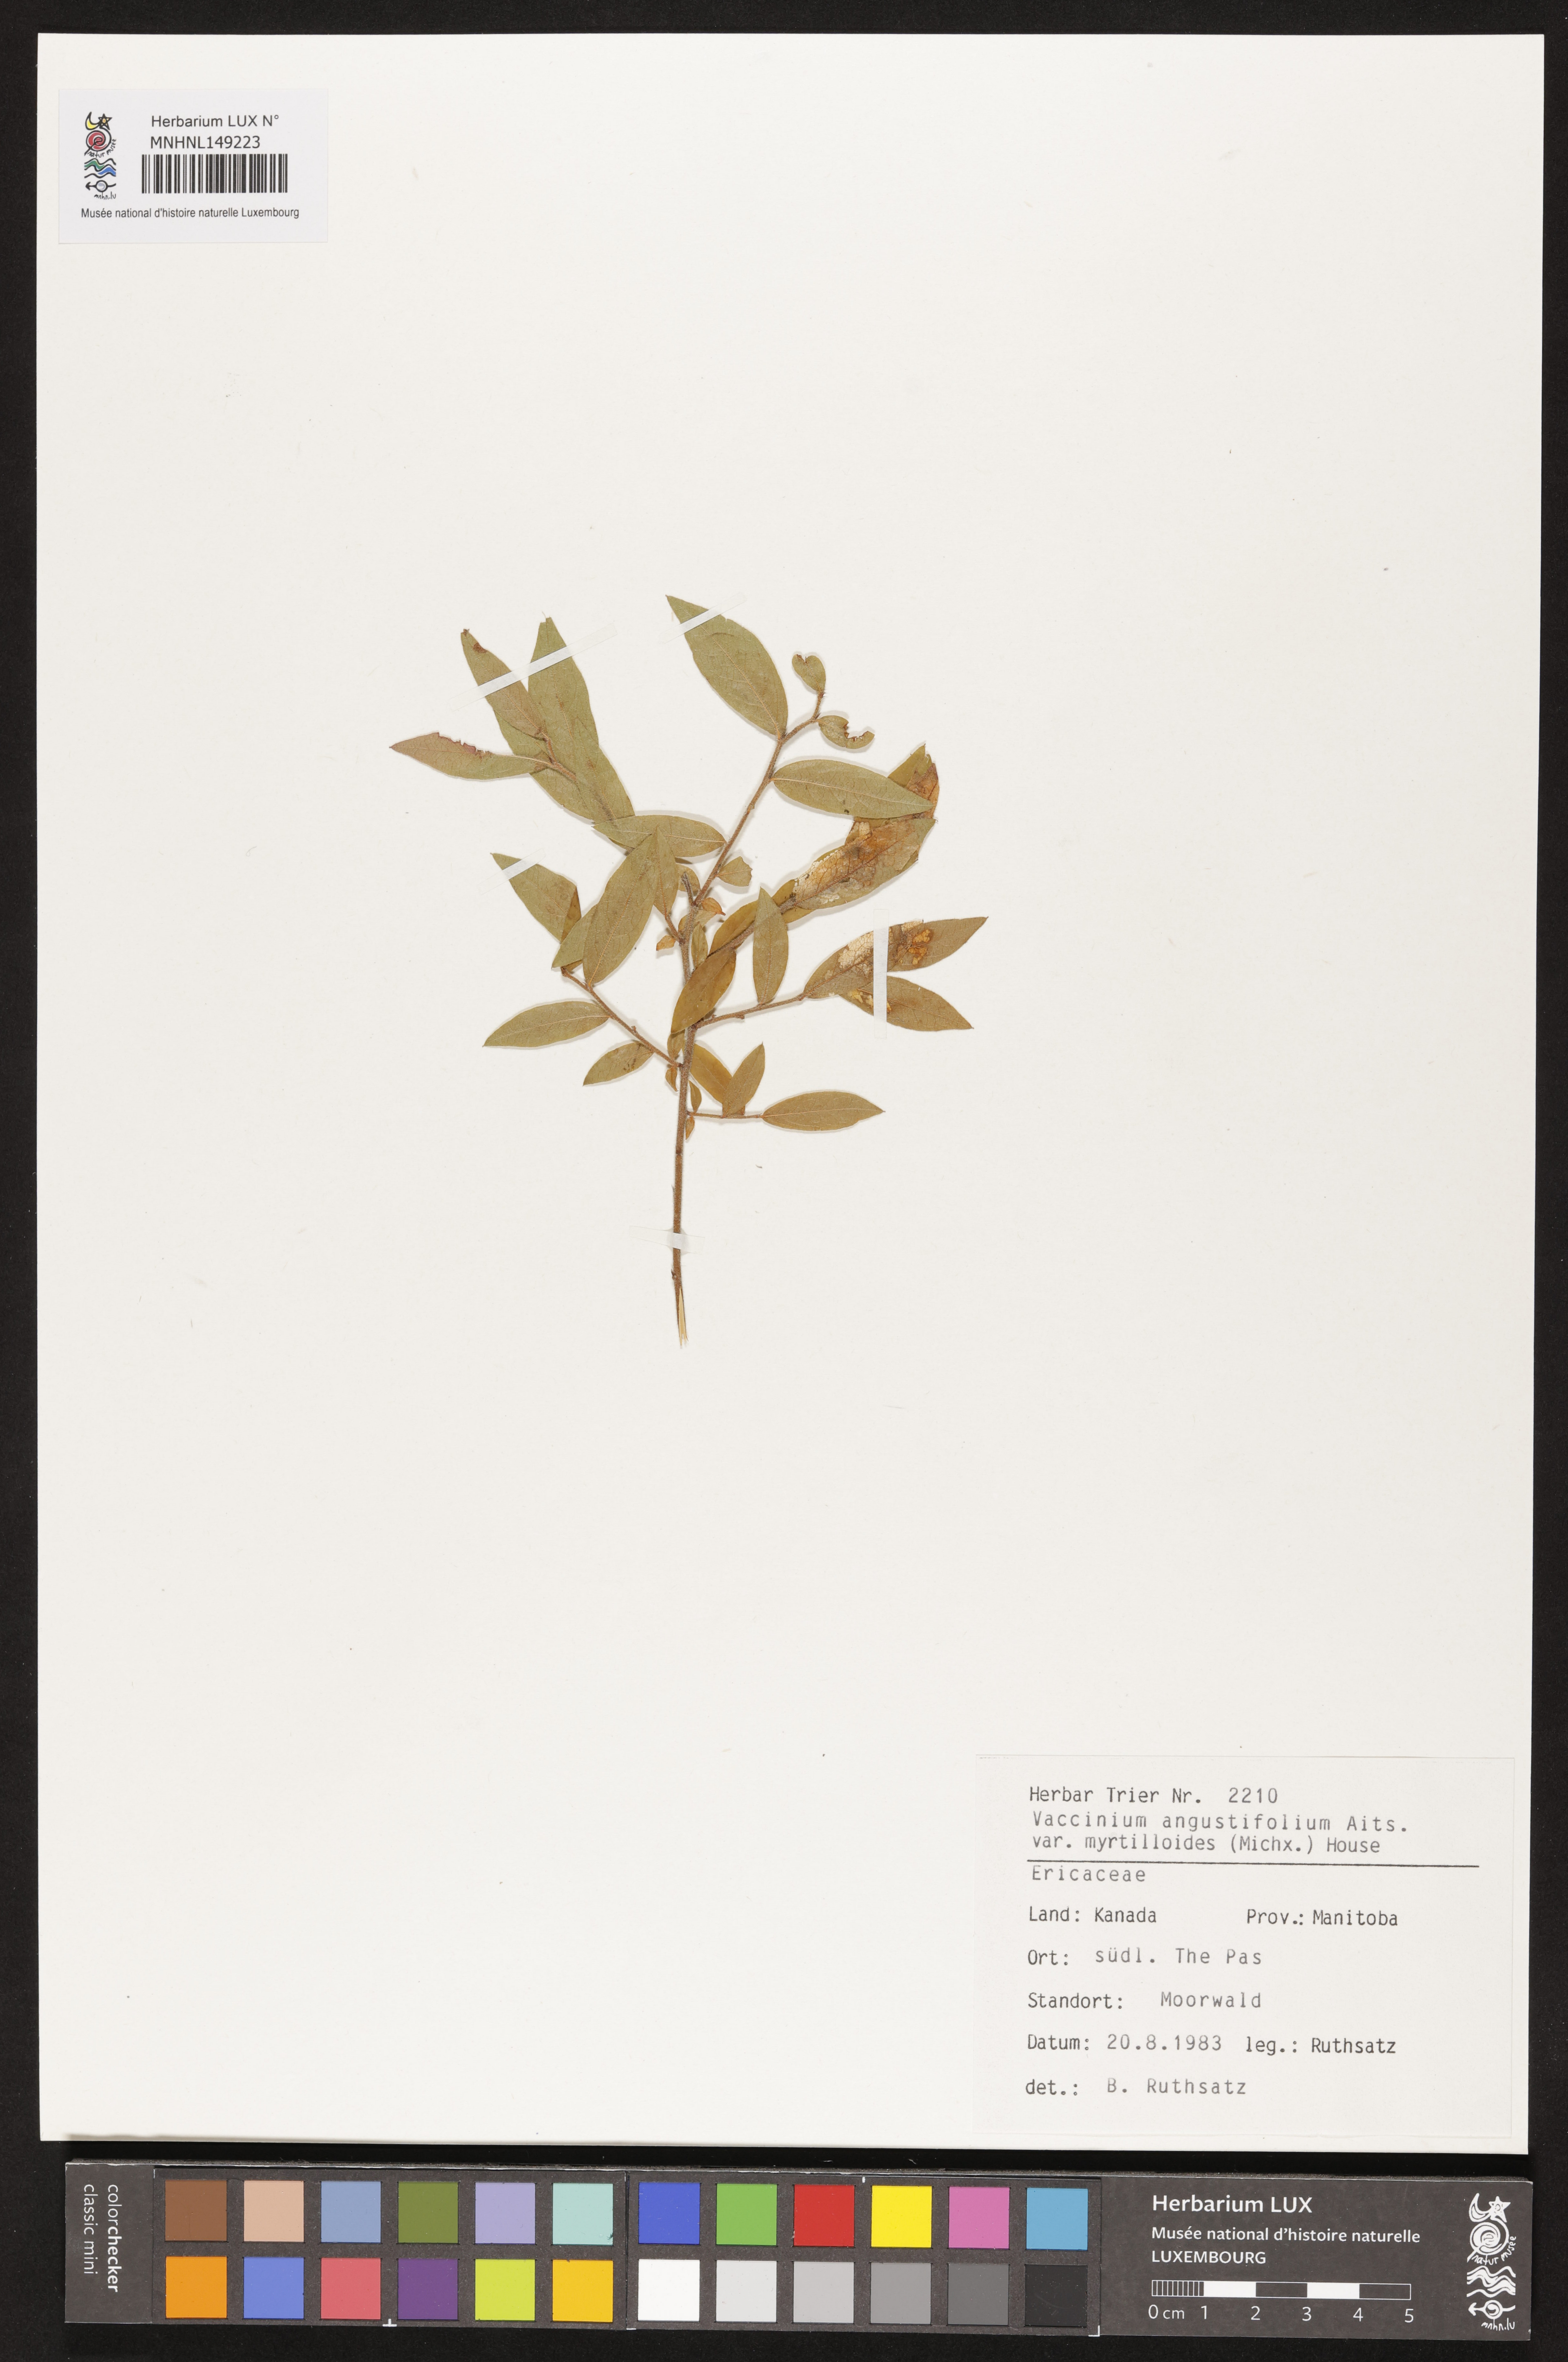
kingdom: Plantae
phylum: Tracheophyta
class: Magnoliopsida
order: Ericales
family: Ericaceae
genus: Vaccinium
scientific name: Vaccinium myrtilloides
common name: Canada blueberry
